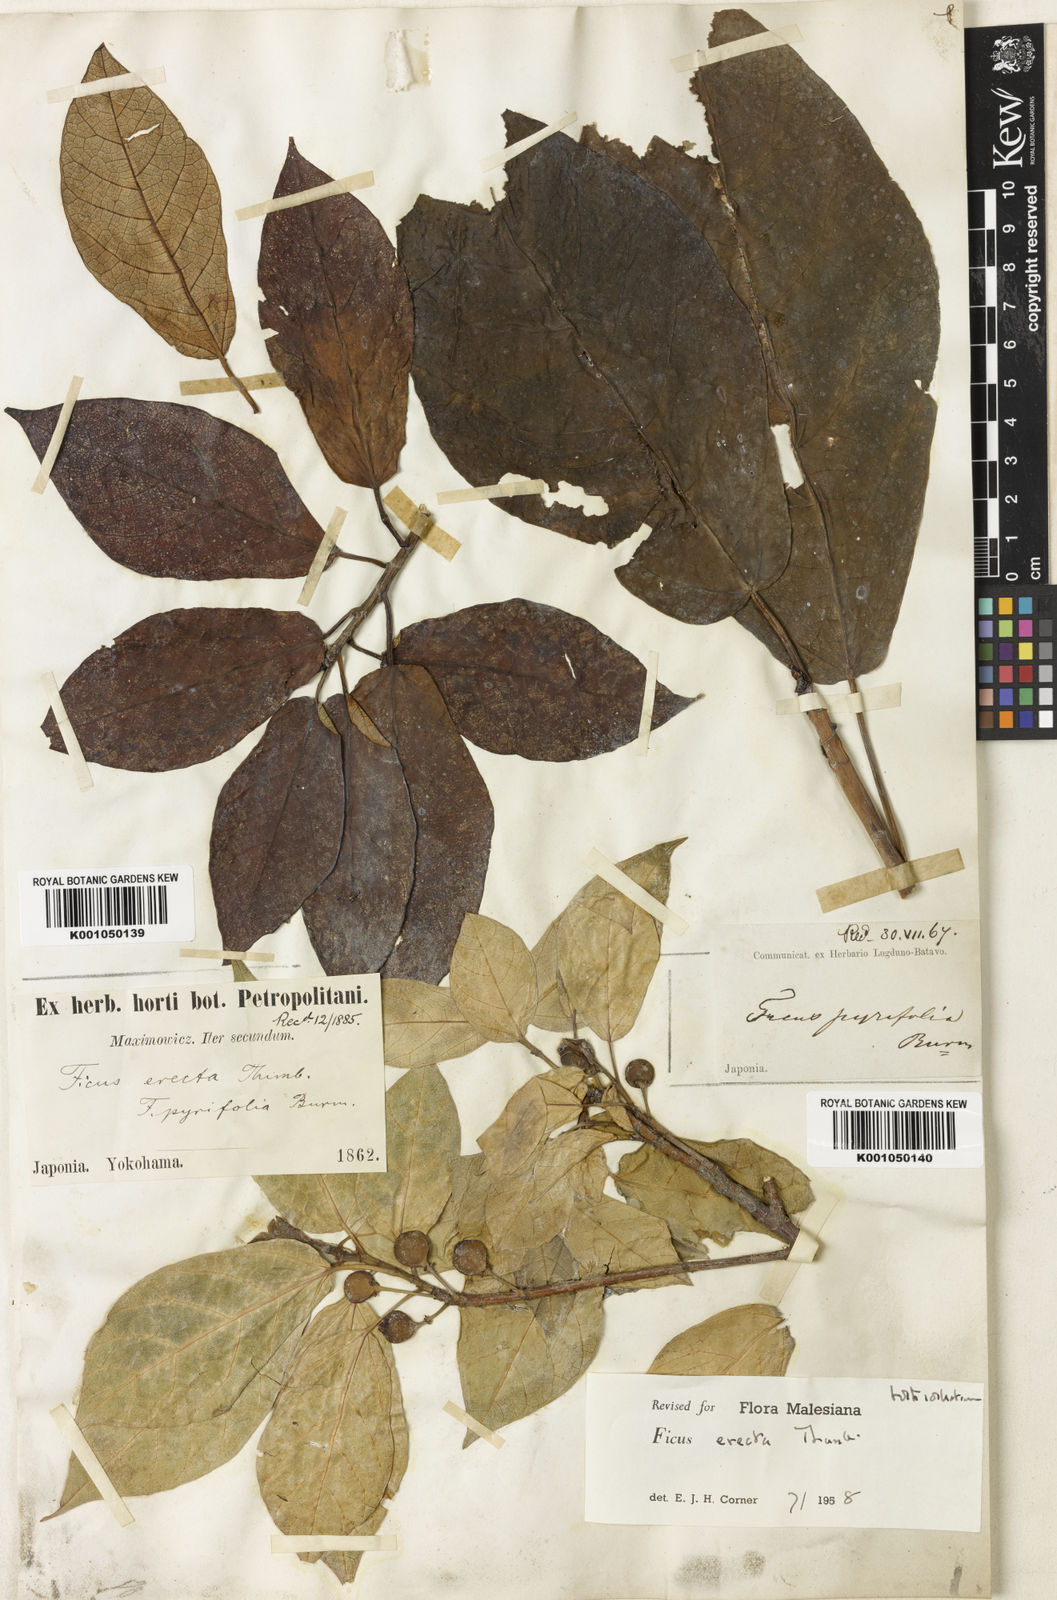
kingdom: Plantae
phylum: Tracheophyta
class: Magnoliopsida
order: Rosales
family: Moraceae
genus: Ficus
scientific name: Ficus erecta
